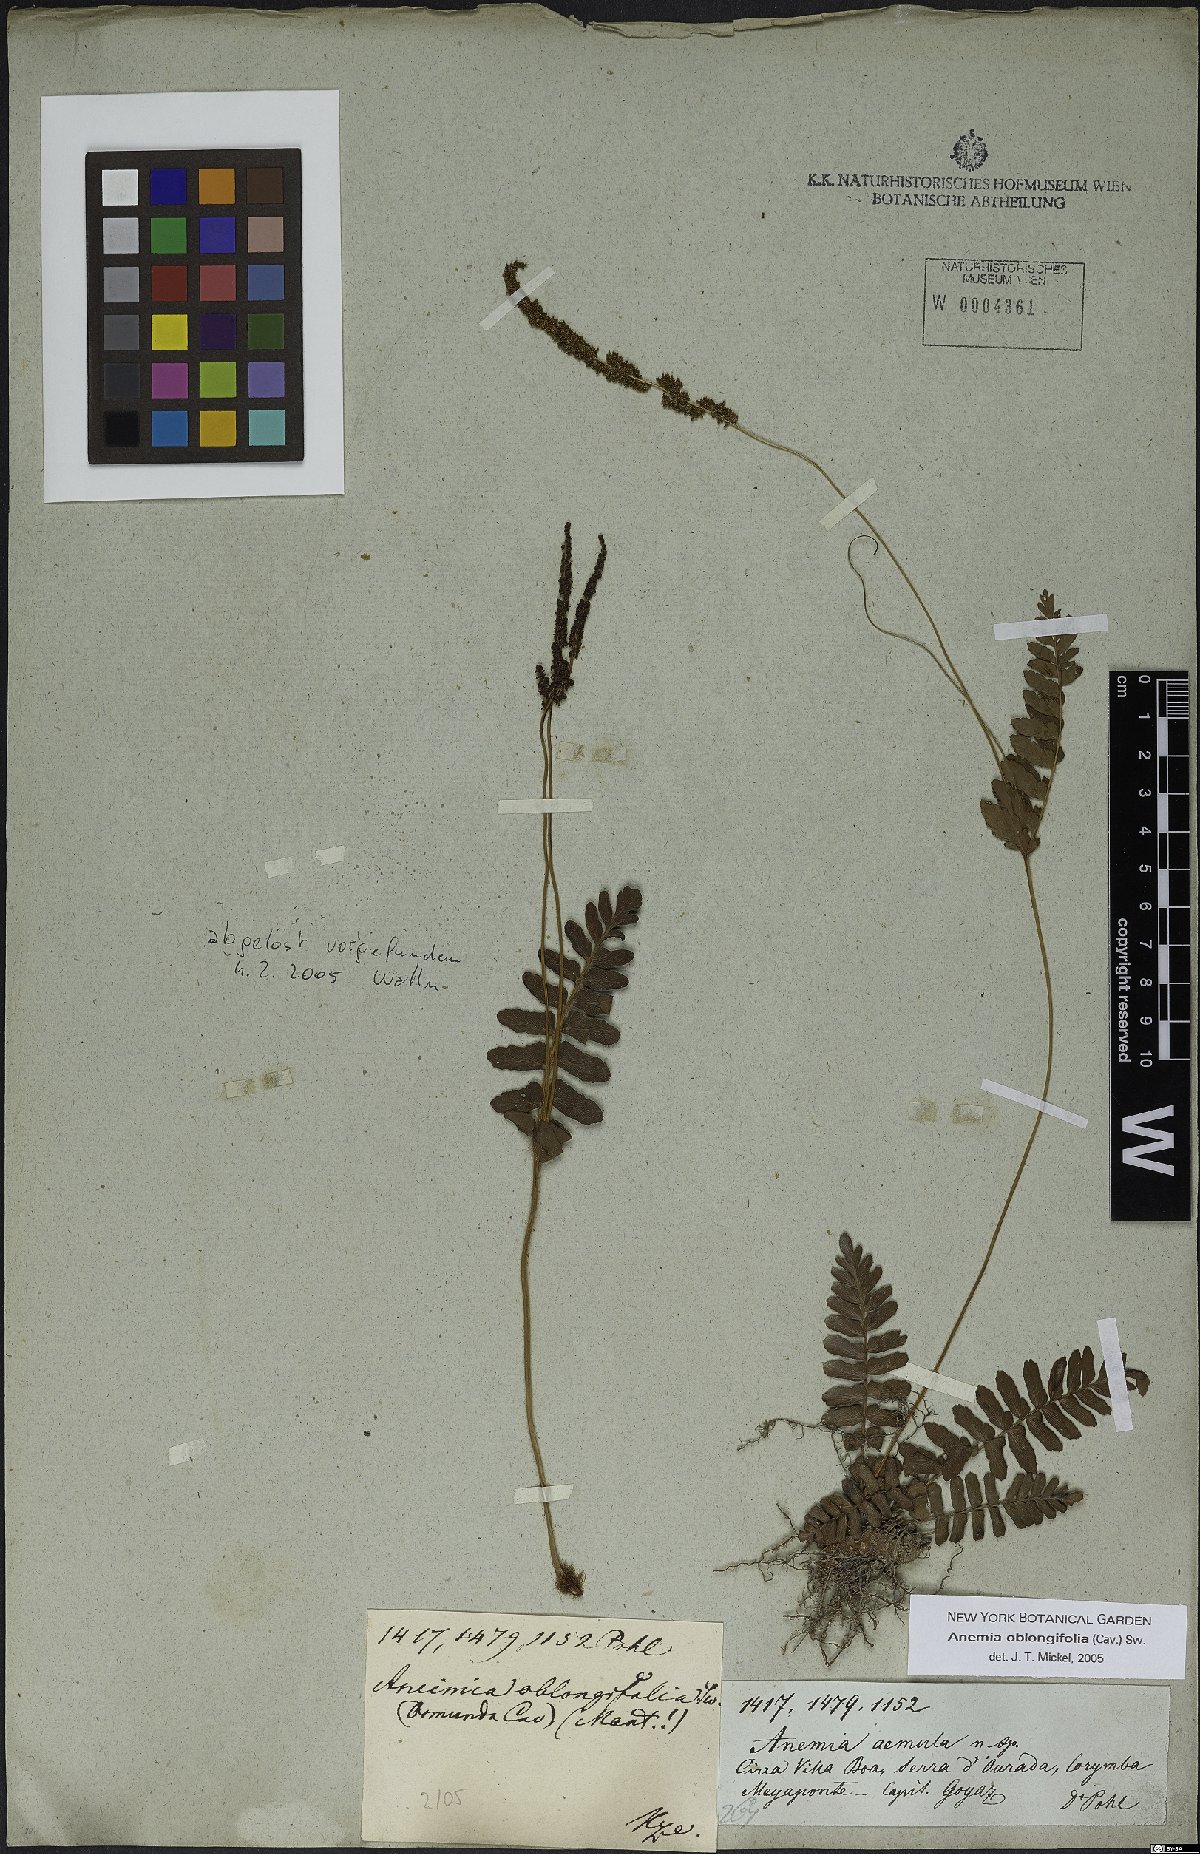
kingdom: Plantae
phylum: Tracheophyta
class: Polypodiopsida
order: Schizaeales
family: Anemiaceae
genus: Anemia
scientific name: Anemia oblongifolia
